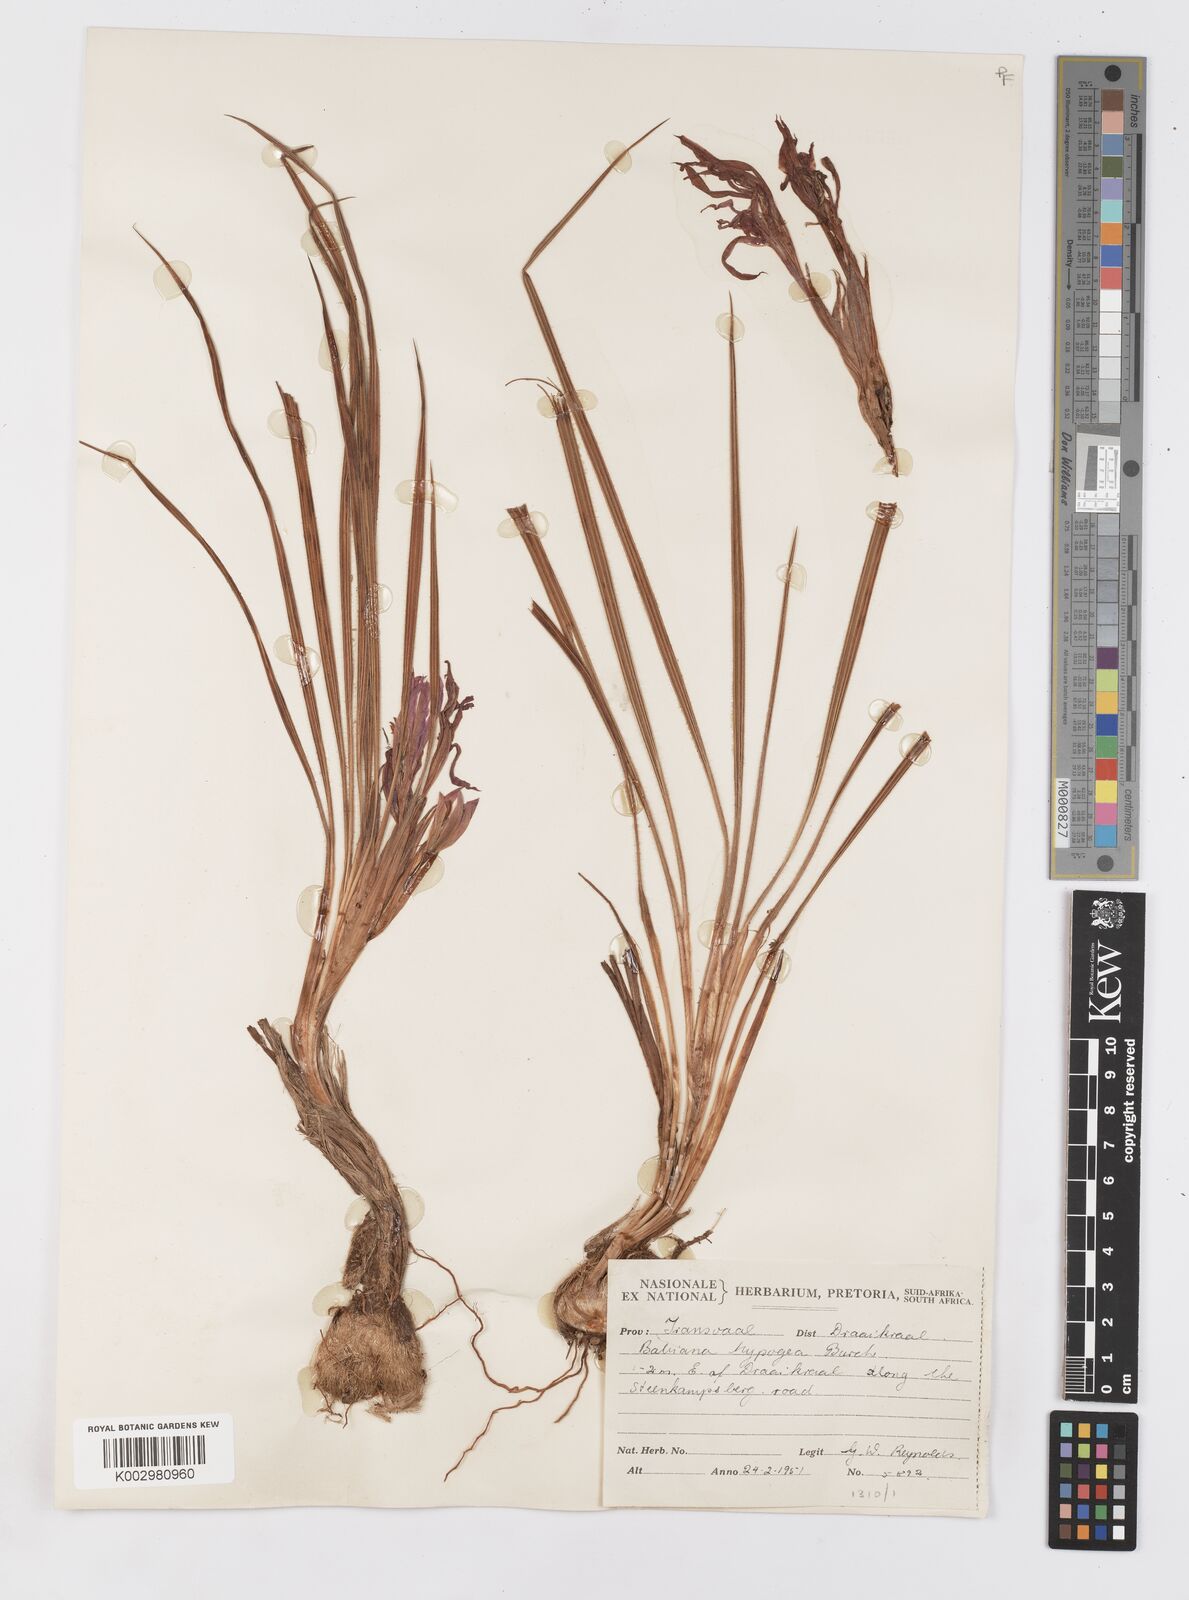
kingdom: Plantae
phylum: Tracheophyta
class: Liliopsida
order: Asparagales
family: Iridaceae
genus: Babiana
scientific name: Babiana bainesii
